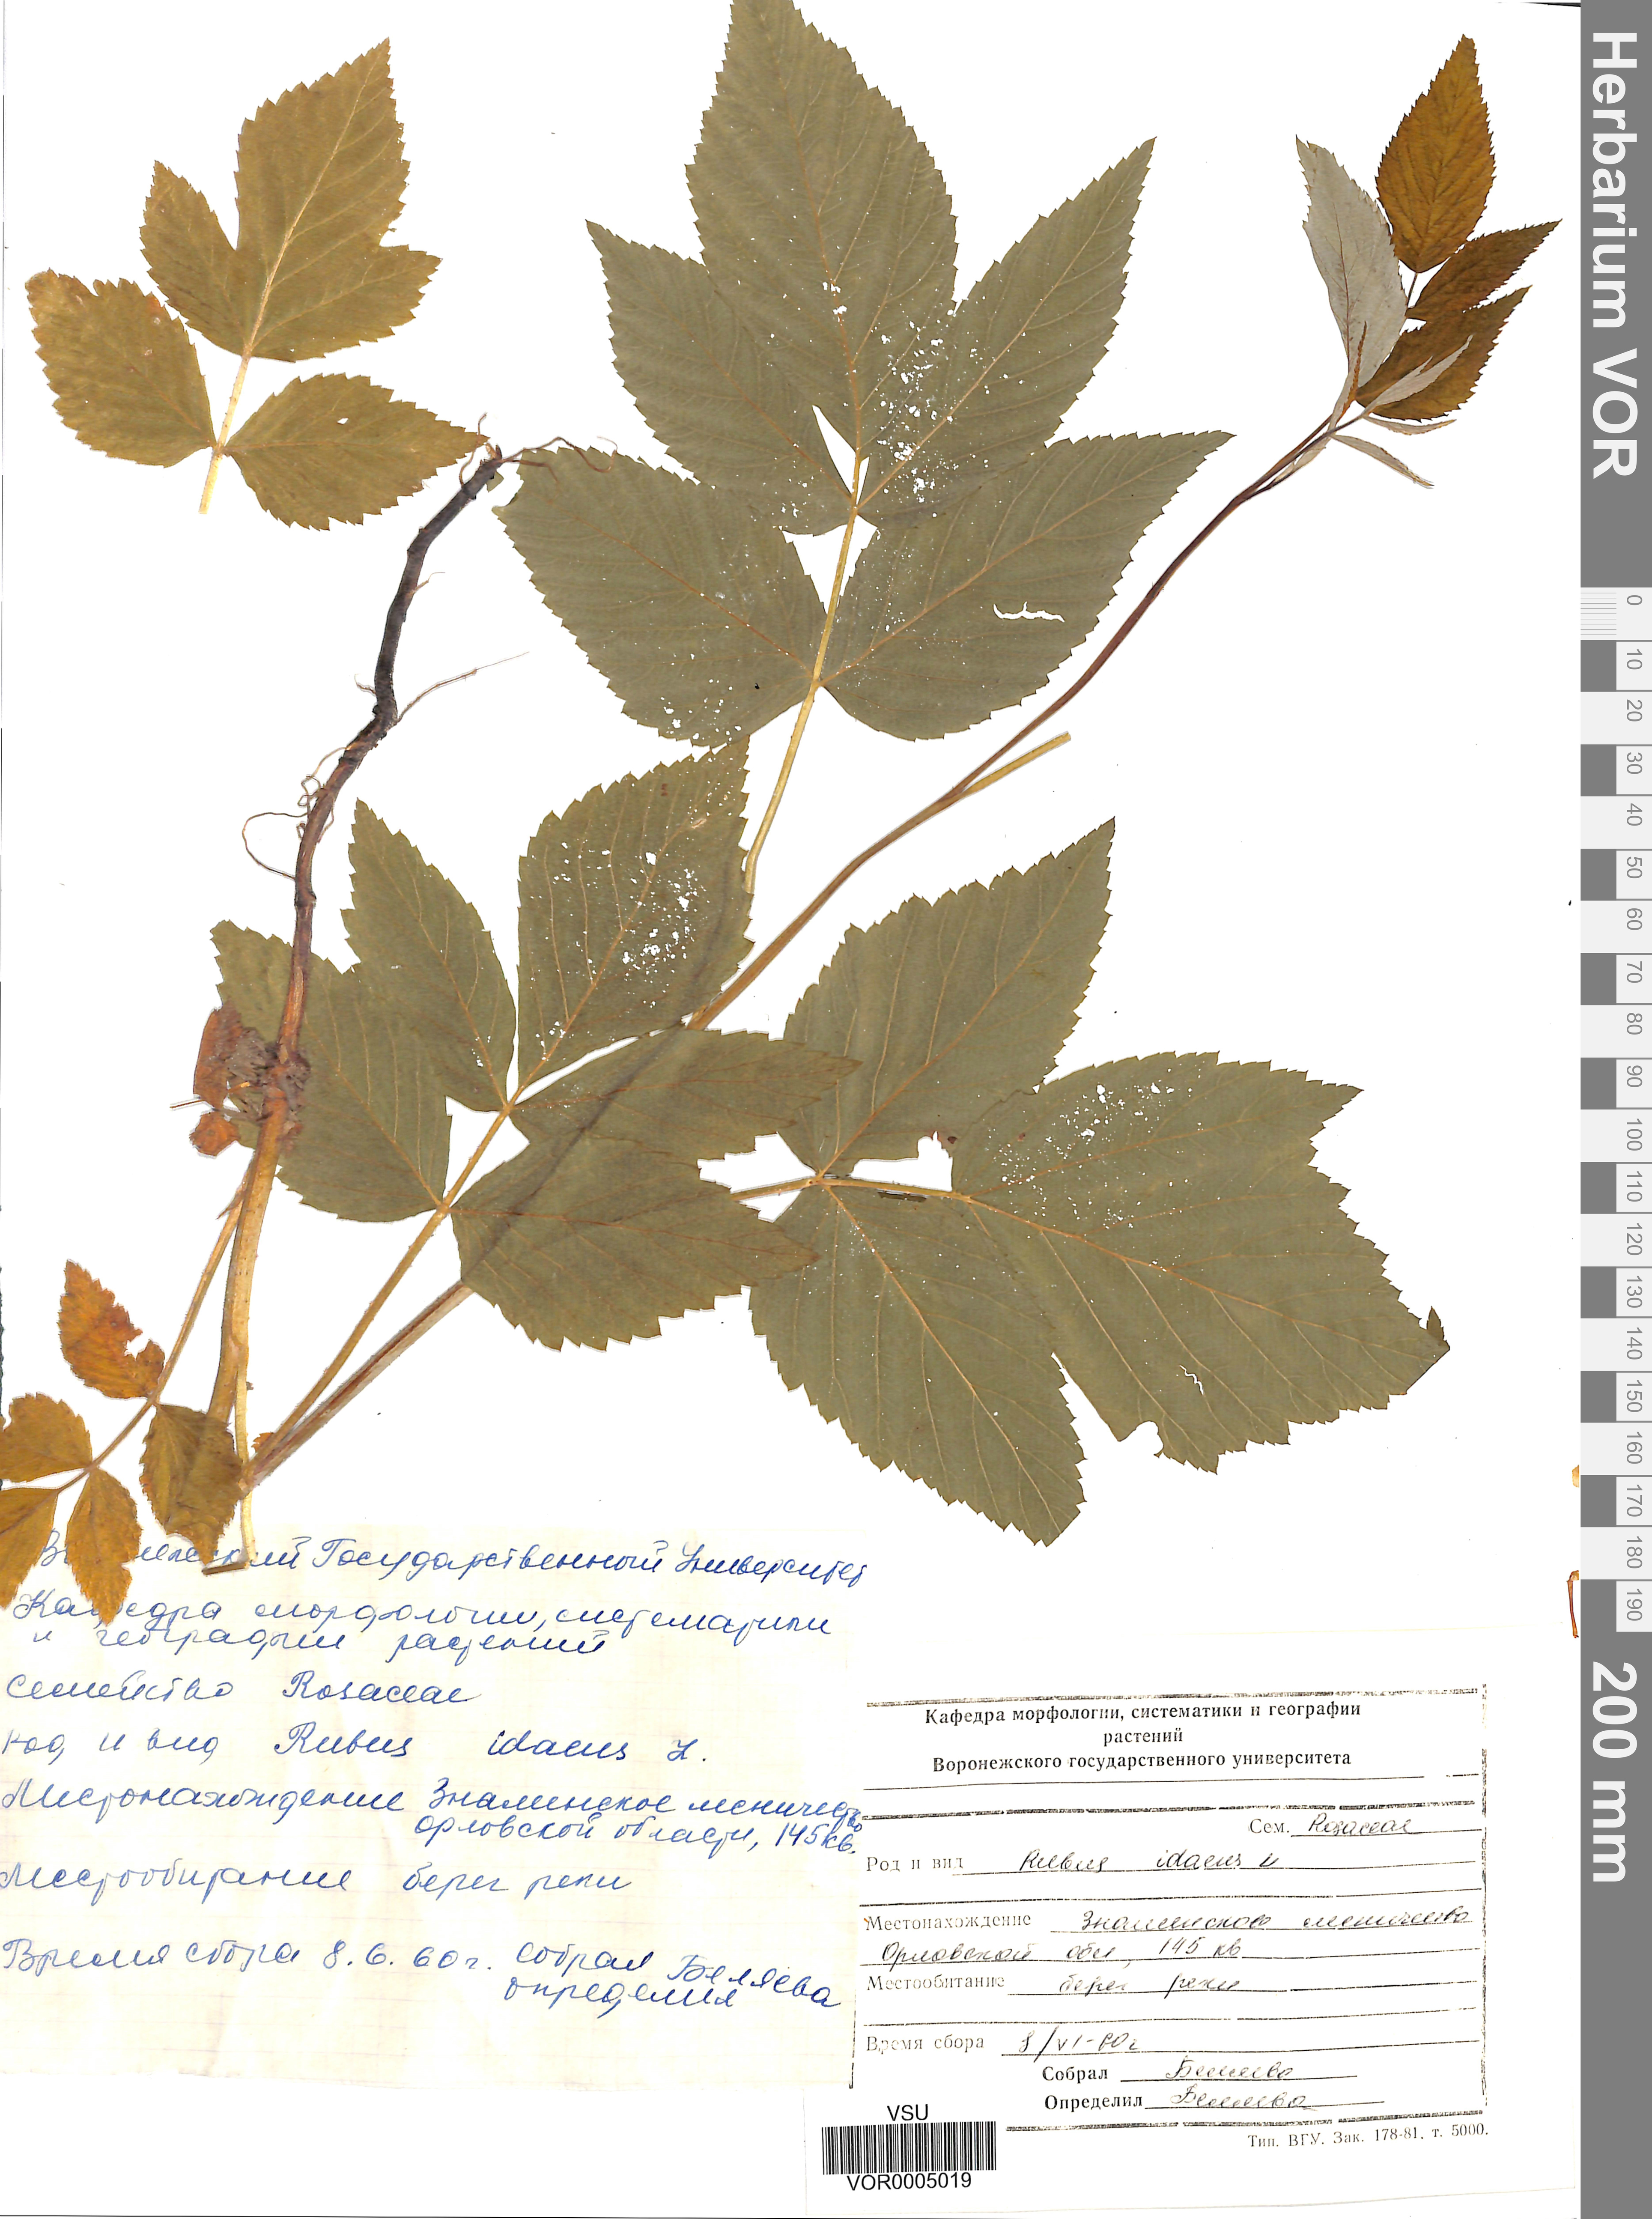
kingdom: Plantae
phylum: Tracheophyta
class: Magnoliopsida
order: Rosales
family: Rosaceae
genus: Rubus
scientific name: Rubus idaeus
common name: Raspberry
